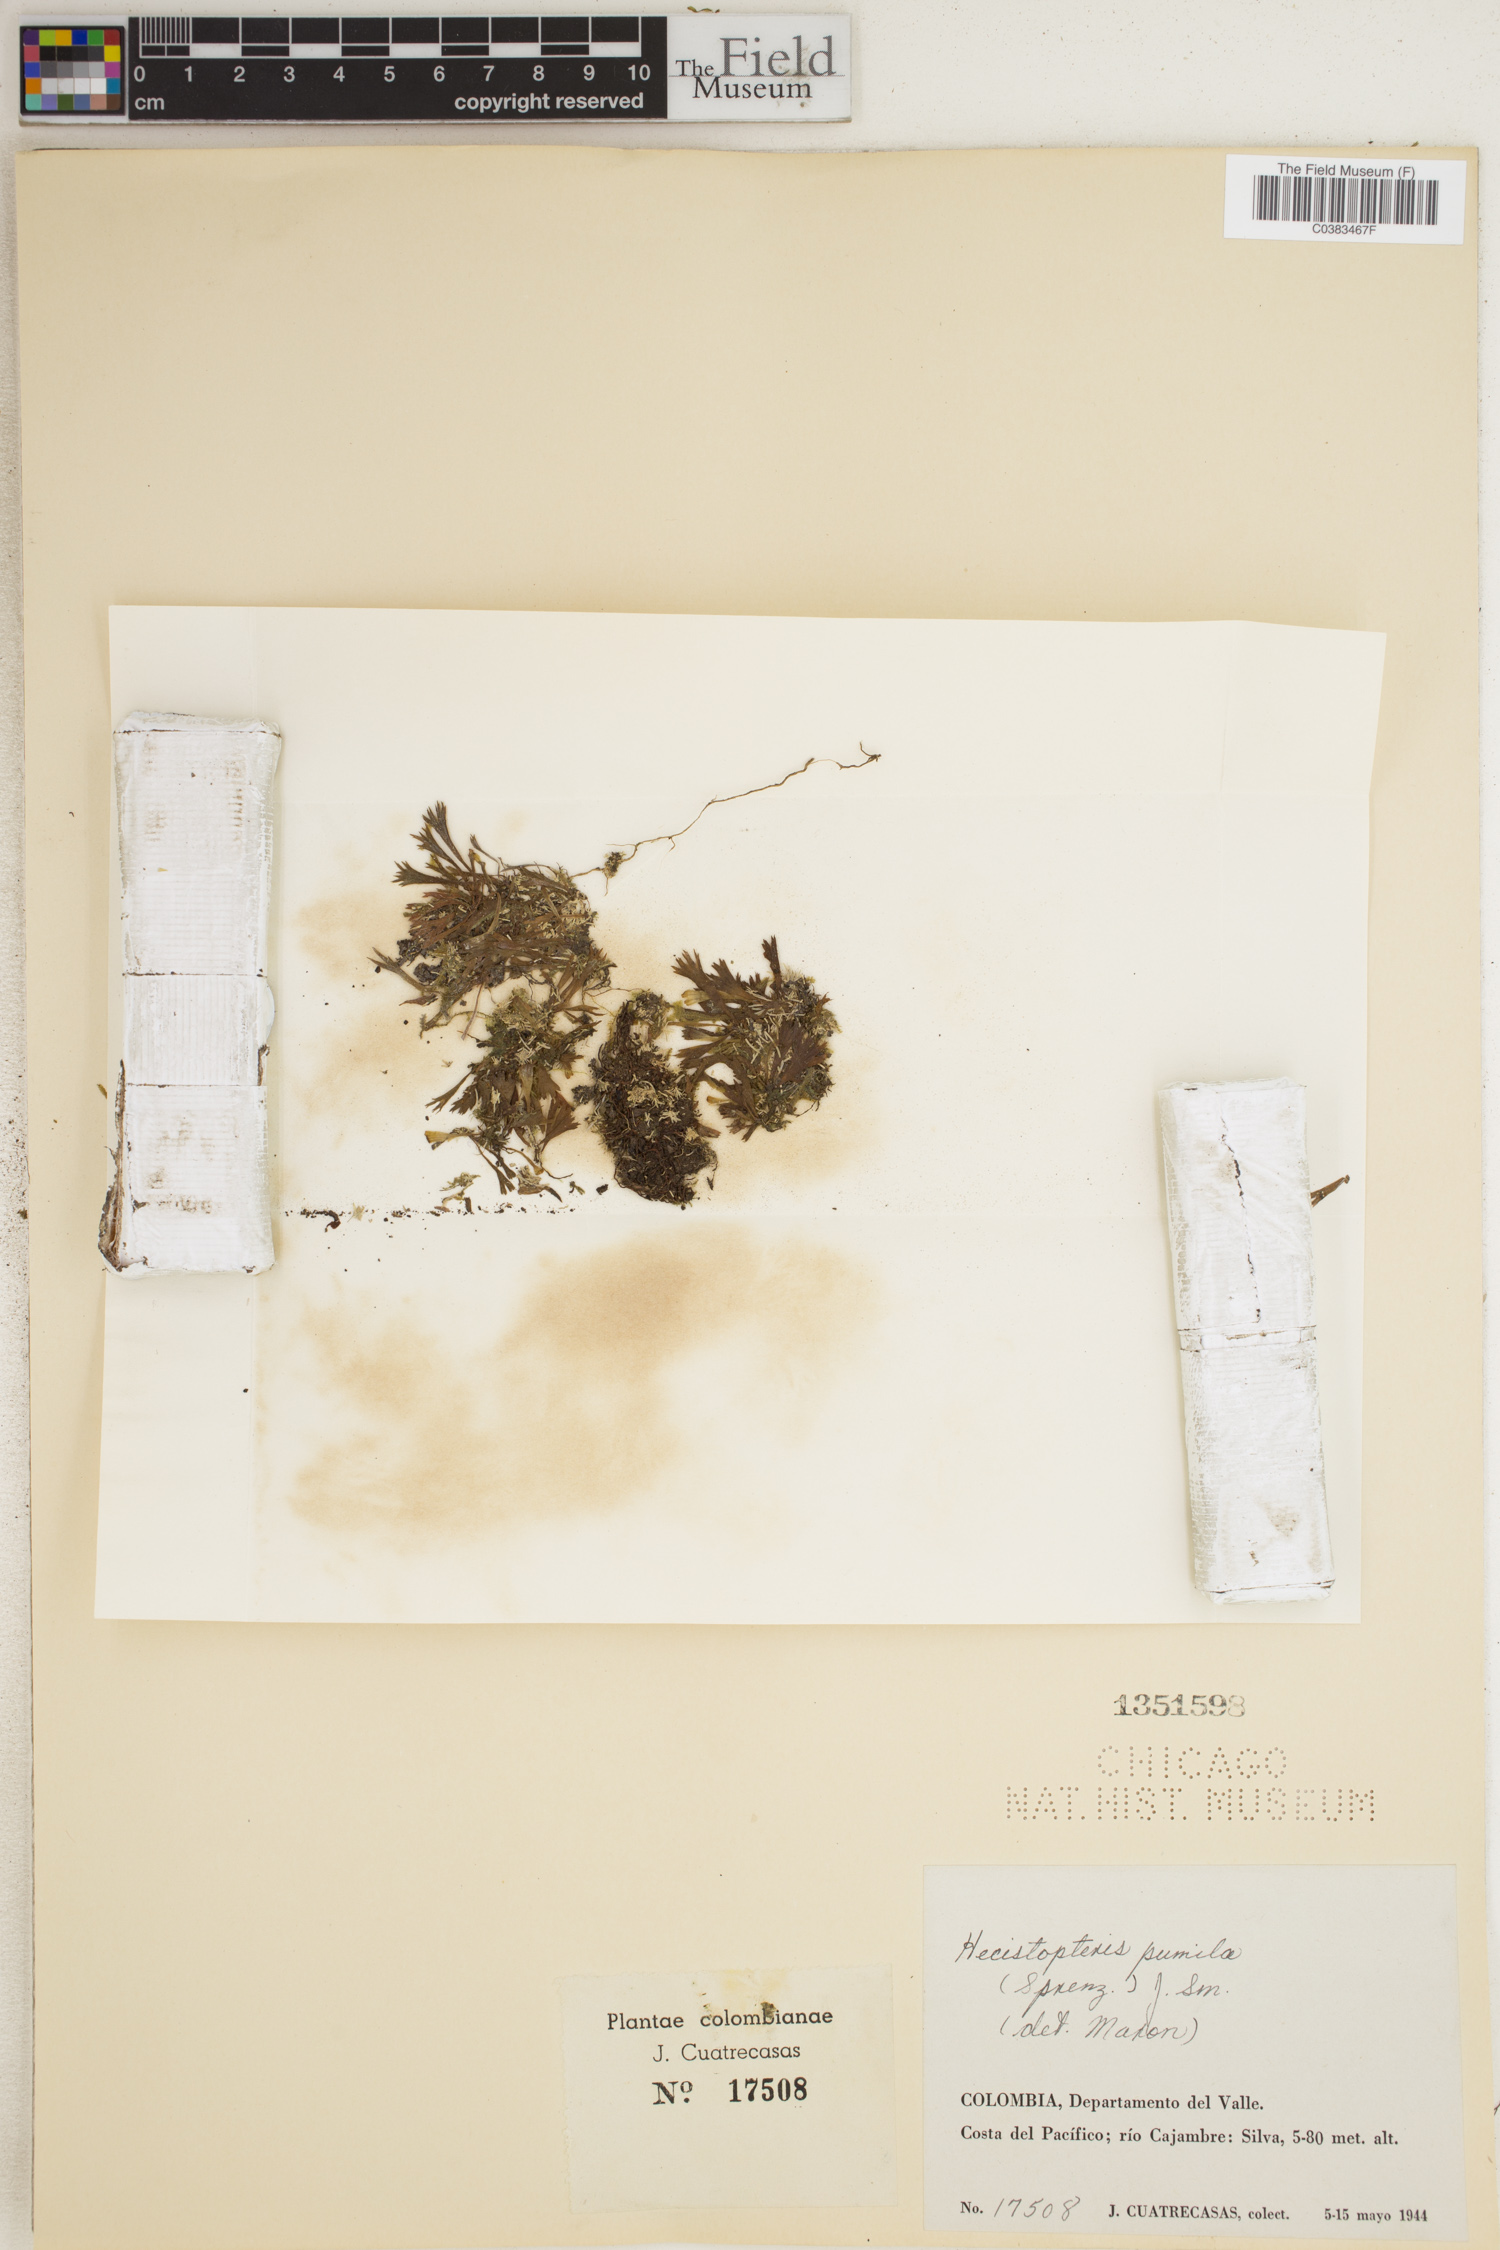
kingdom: Plantae
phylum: Tracheophyta
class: Polypodiopsida
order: Polypodiales
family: Pteridaceae
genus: Hecistopteris
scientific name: Hecistopteris pumila
